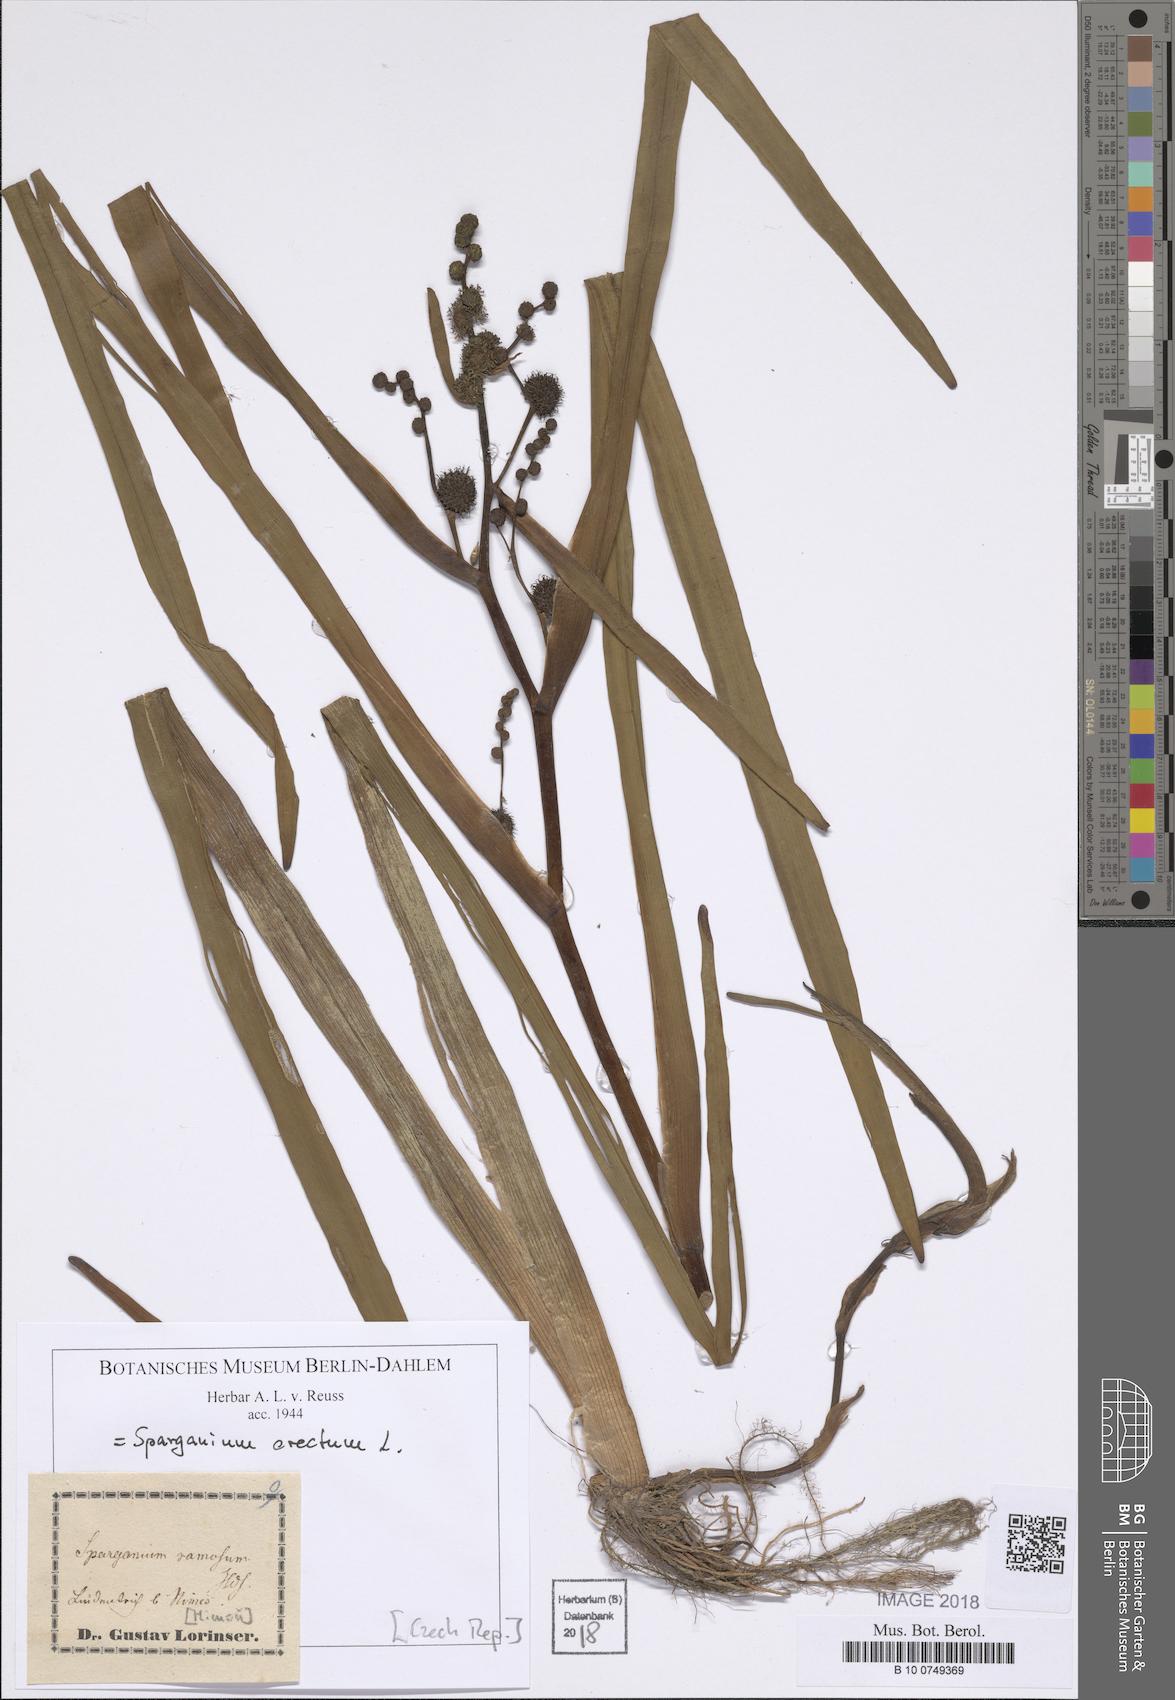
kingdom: Plantae
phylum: Tracheophyta
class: Liliopsida
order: Poales
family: Typhaceae
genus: Sparganium
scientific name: Sparganium erectum
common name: Branched bur-reed
